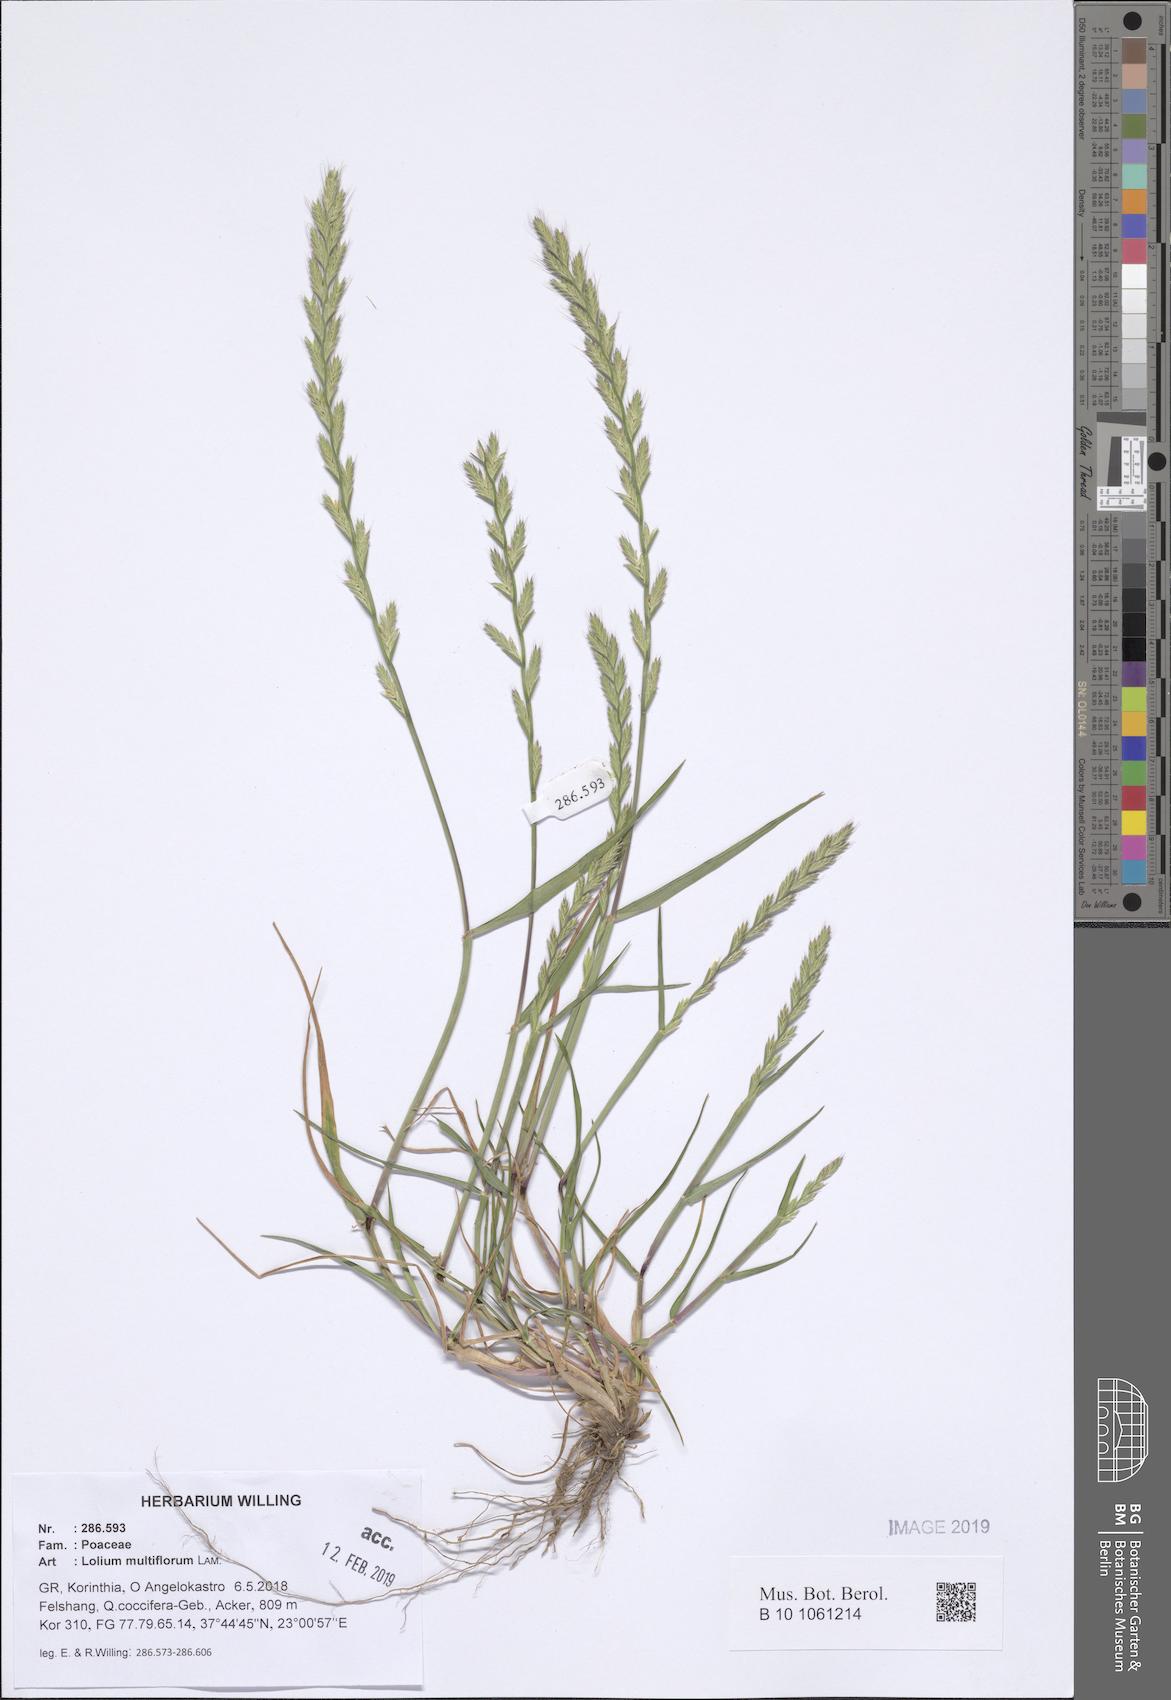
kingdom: Plantae
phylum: Tracheophyta
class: Liliopsida
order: Poales
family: Poaceae
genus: Lolium
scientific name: Lolium multiflorum
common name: Annual ryegrass
